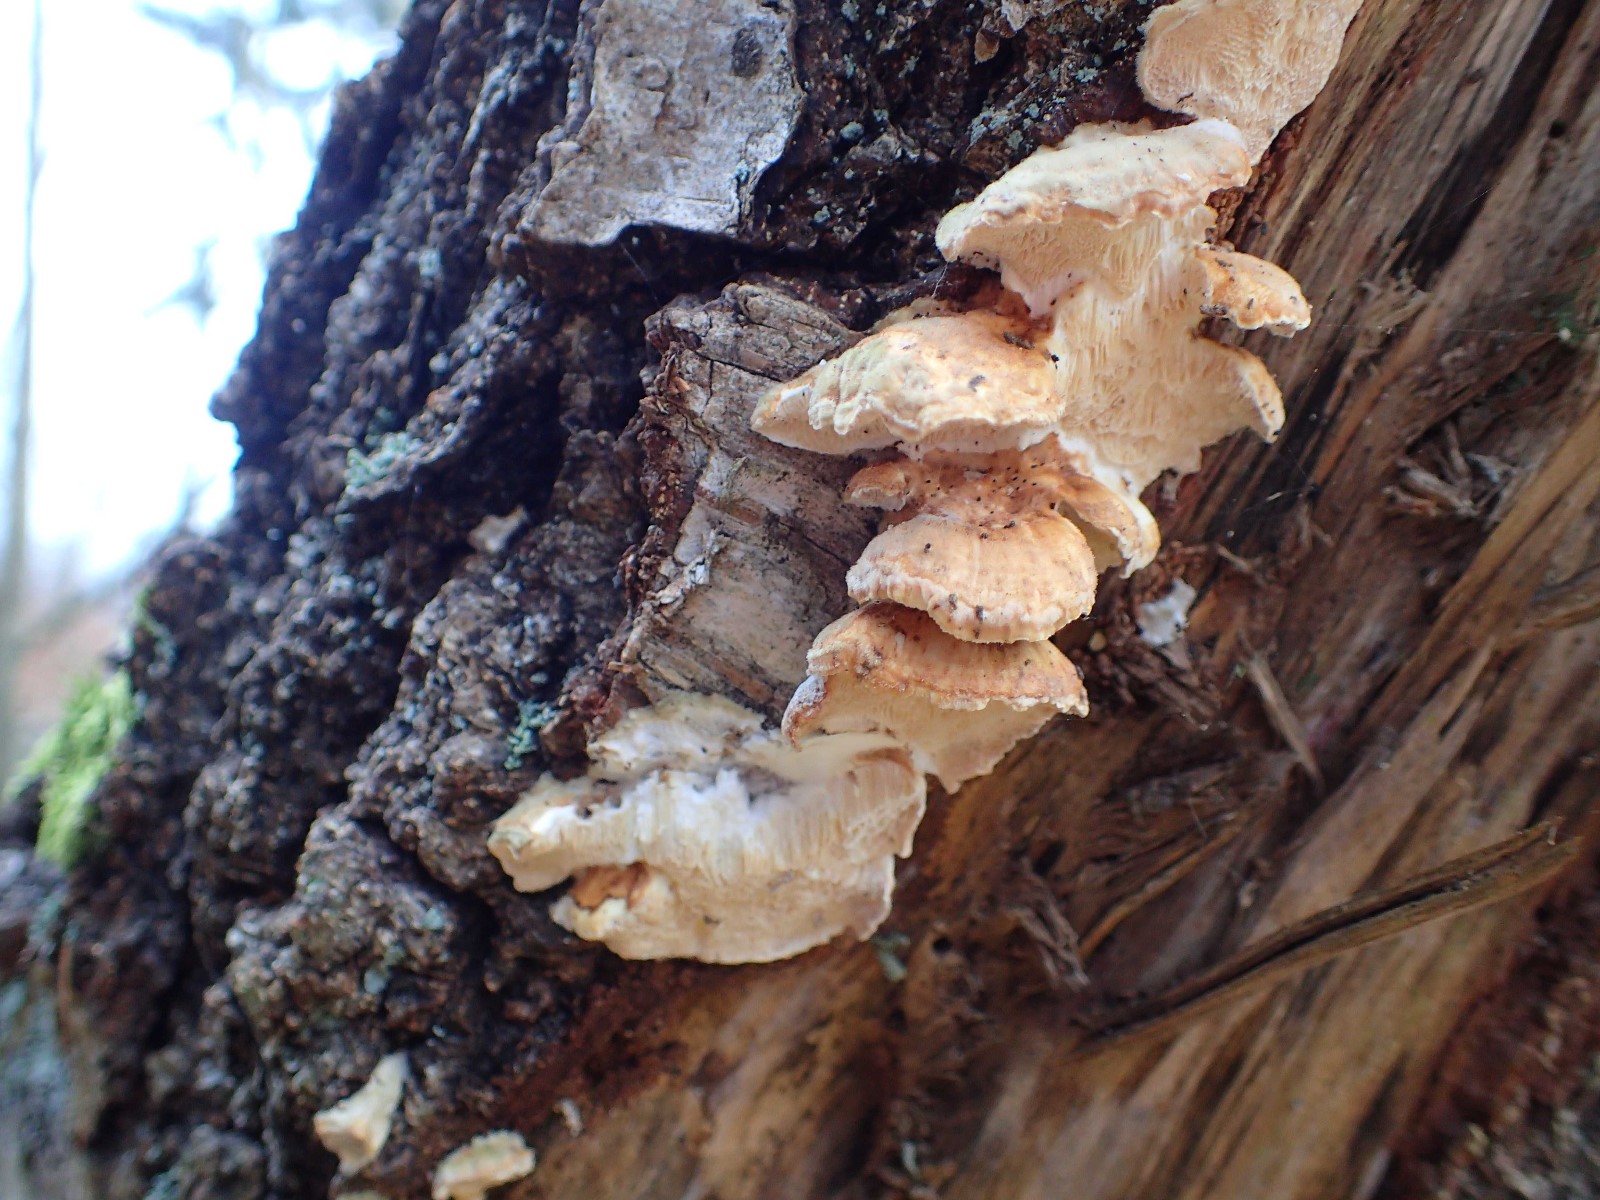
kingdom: Fungi
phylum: Basidiomycota
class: Agaricomycetes
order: Polyporales
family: Polyporaceae
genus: Trametes
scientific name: Trametes ochracea
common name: bæltet læderporesvamp
